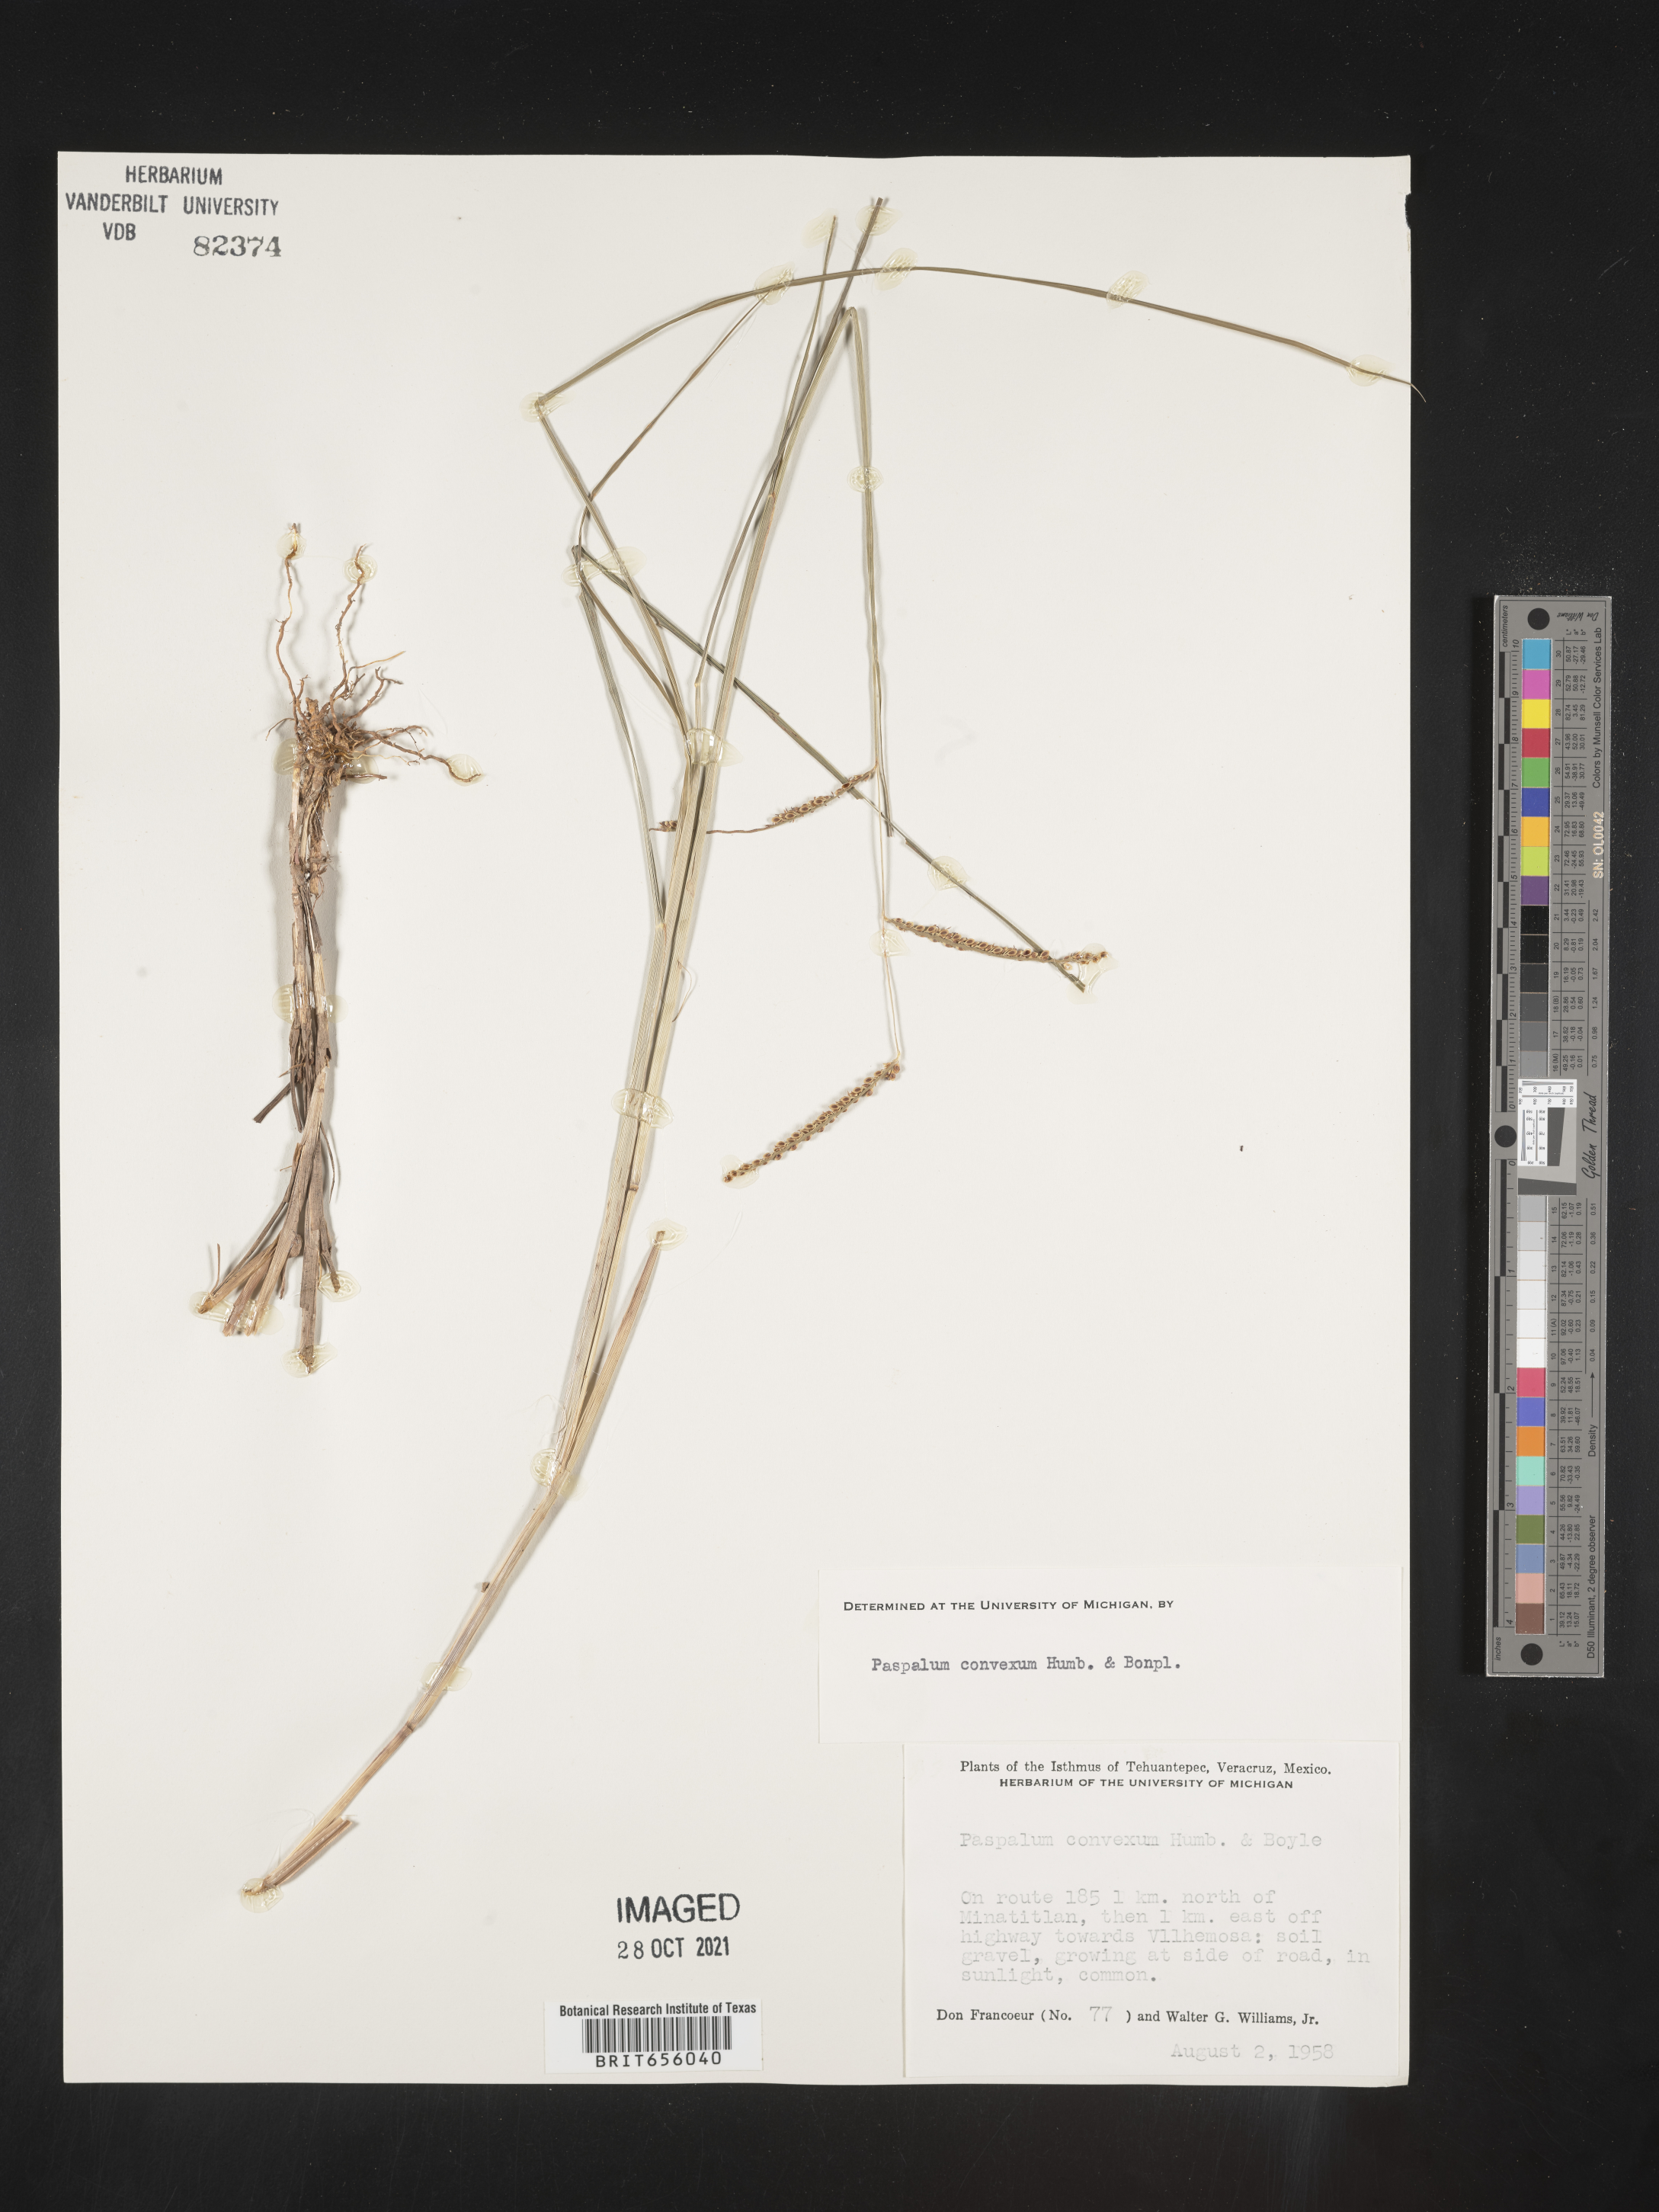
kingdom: Plantae
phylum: Tracheophyta
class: Liliopsida
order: Poales
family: Poaceae
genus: Paspalum
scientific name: Paspalum
